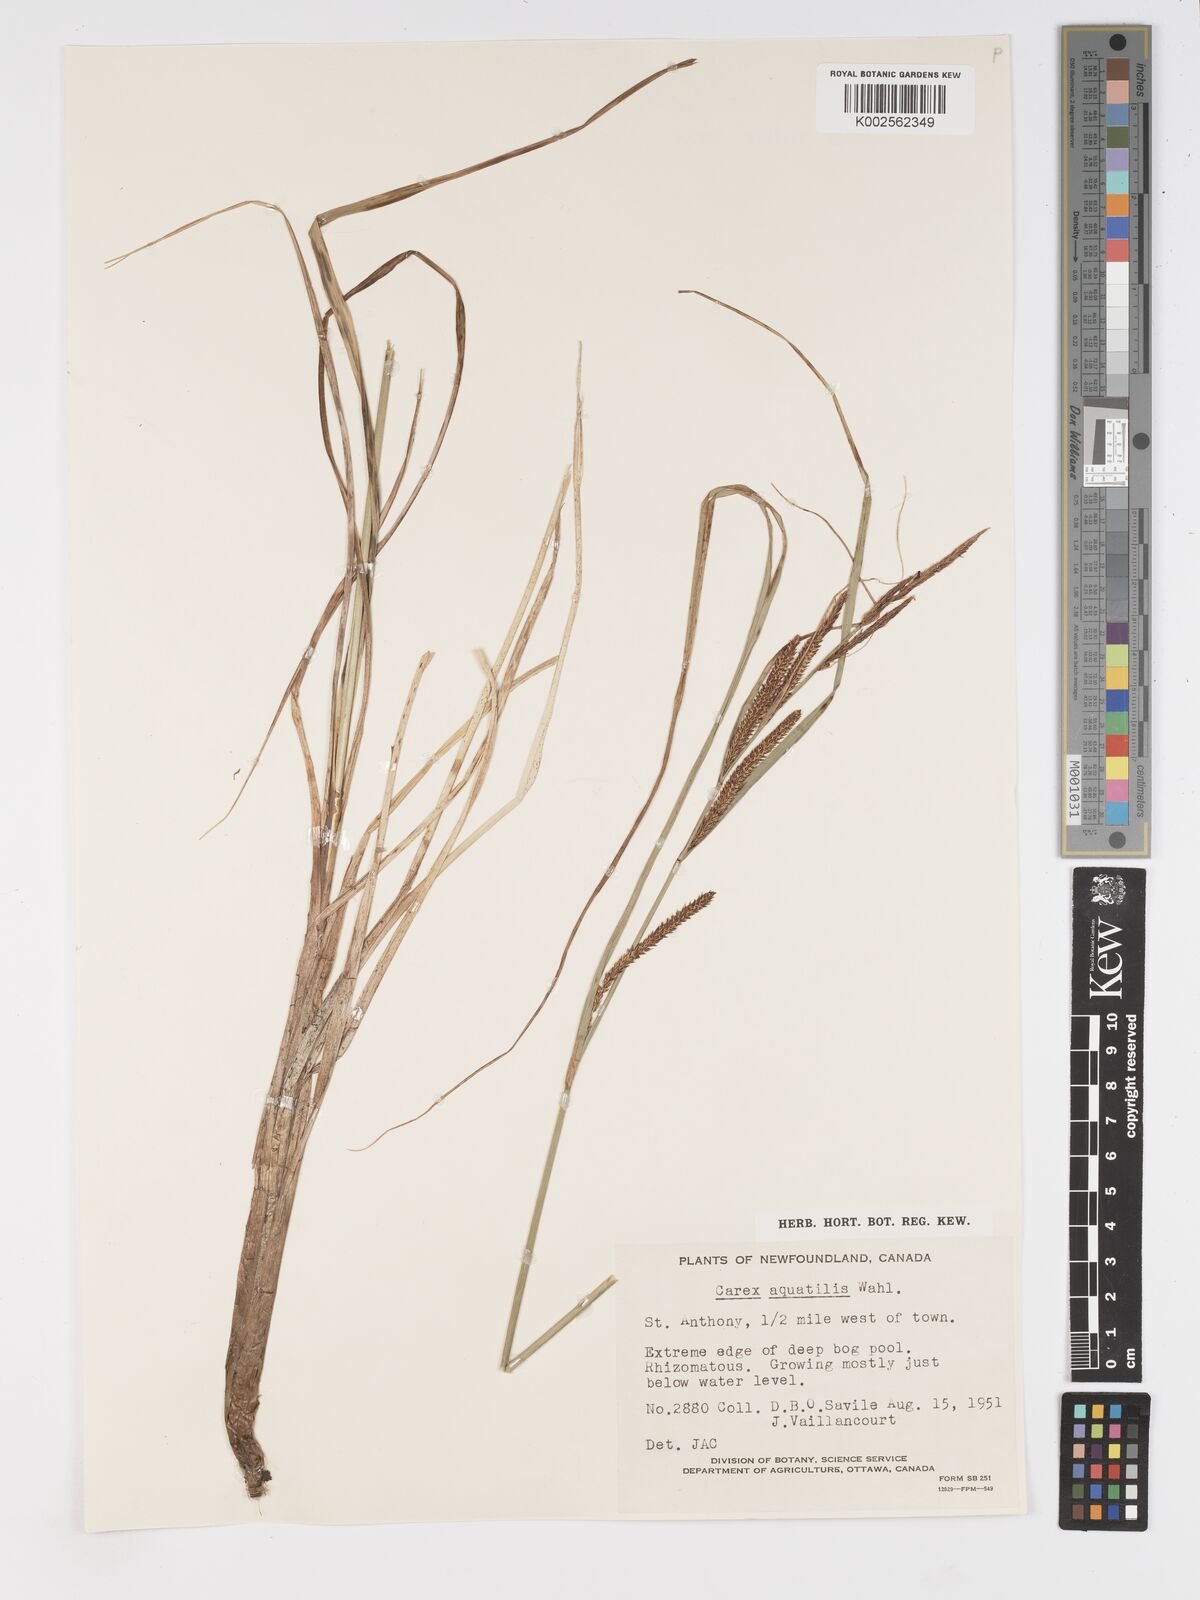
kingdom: Plantae
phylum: Tracheophyta
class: Liliopsida
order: Poales
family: Cyperaceae
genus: Carex
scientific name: Carex aquatilis
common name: Water sedge
